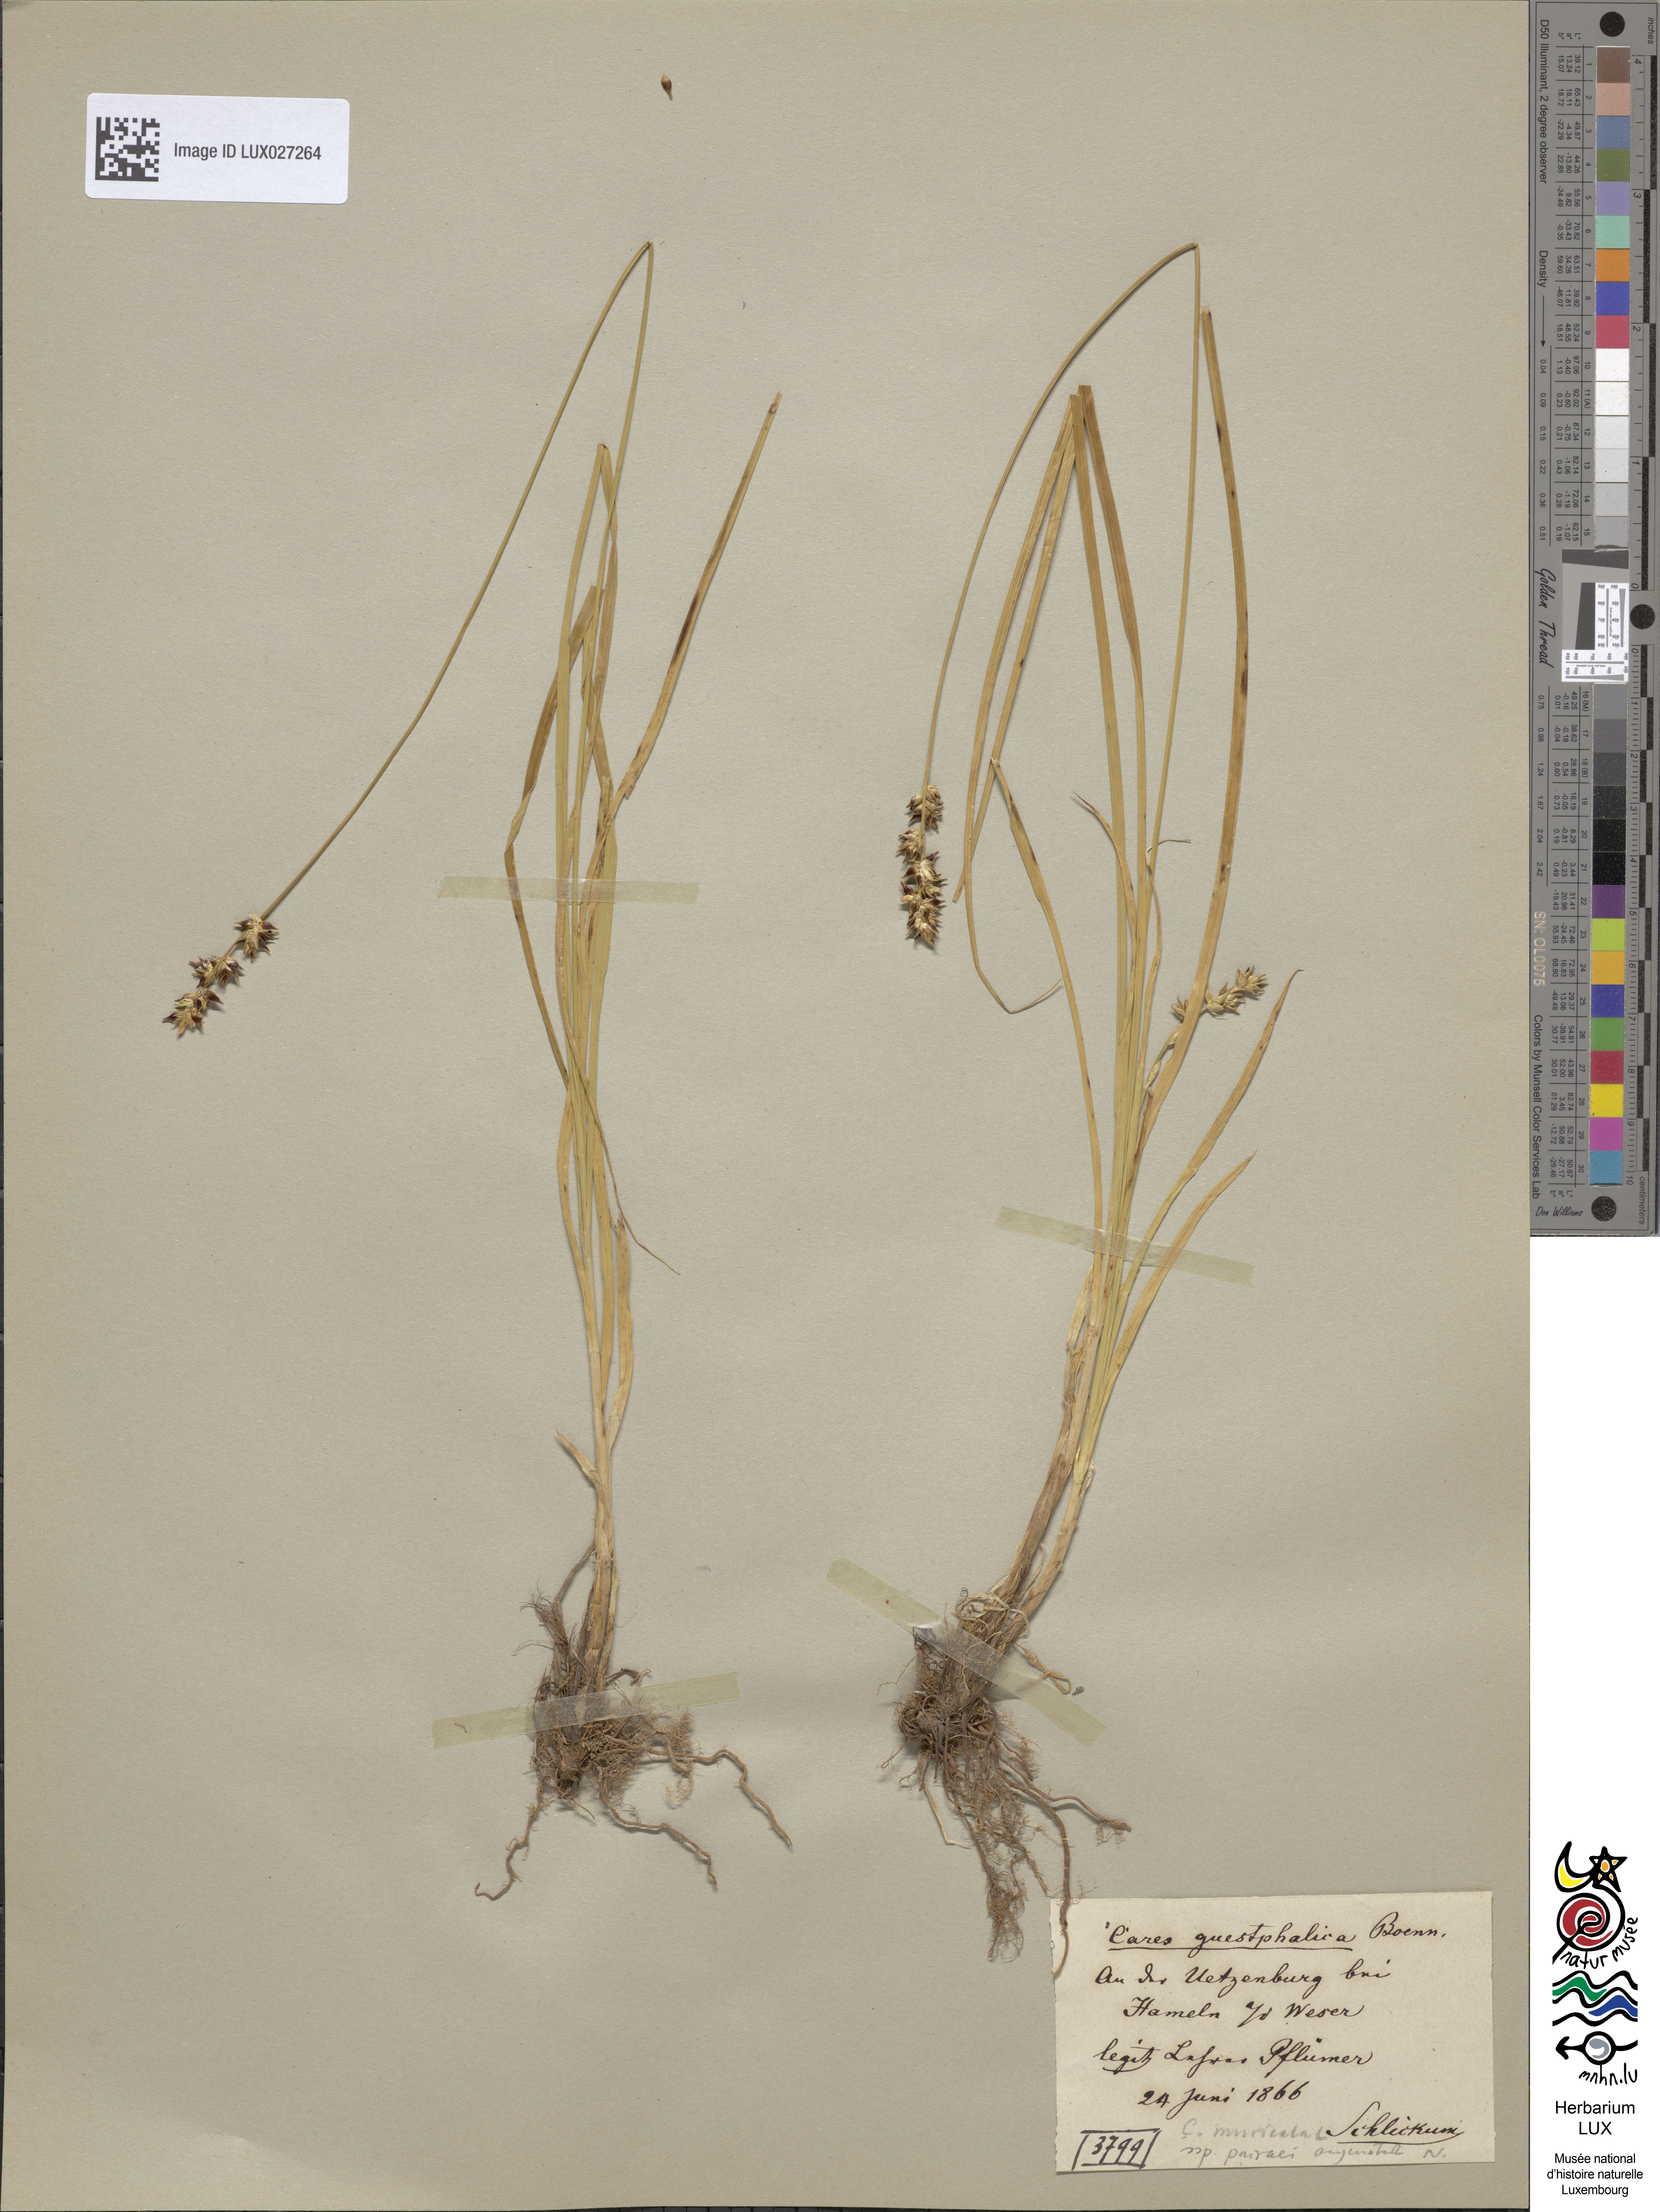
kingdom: Plantae
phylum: Tracheophyta
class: Liliopsida
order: Poales
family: Cyperaceae
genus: Carex
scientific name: Carex divulsa
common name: Grassland sedge
